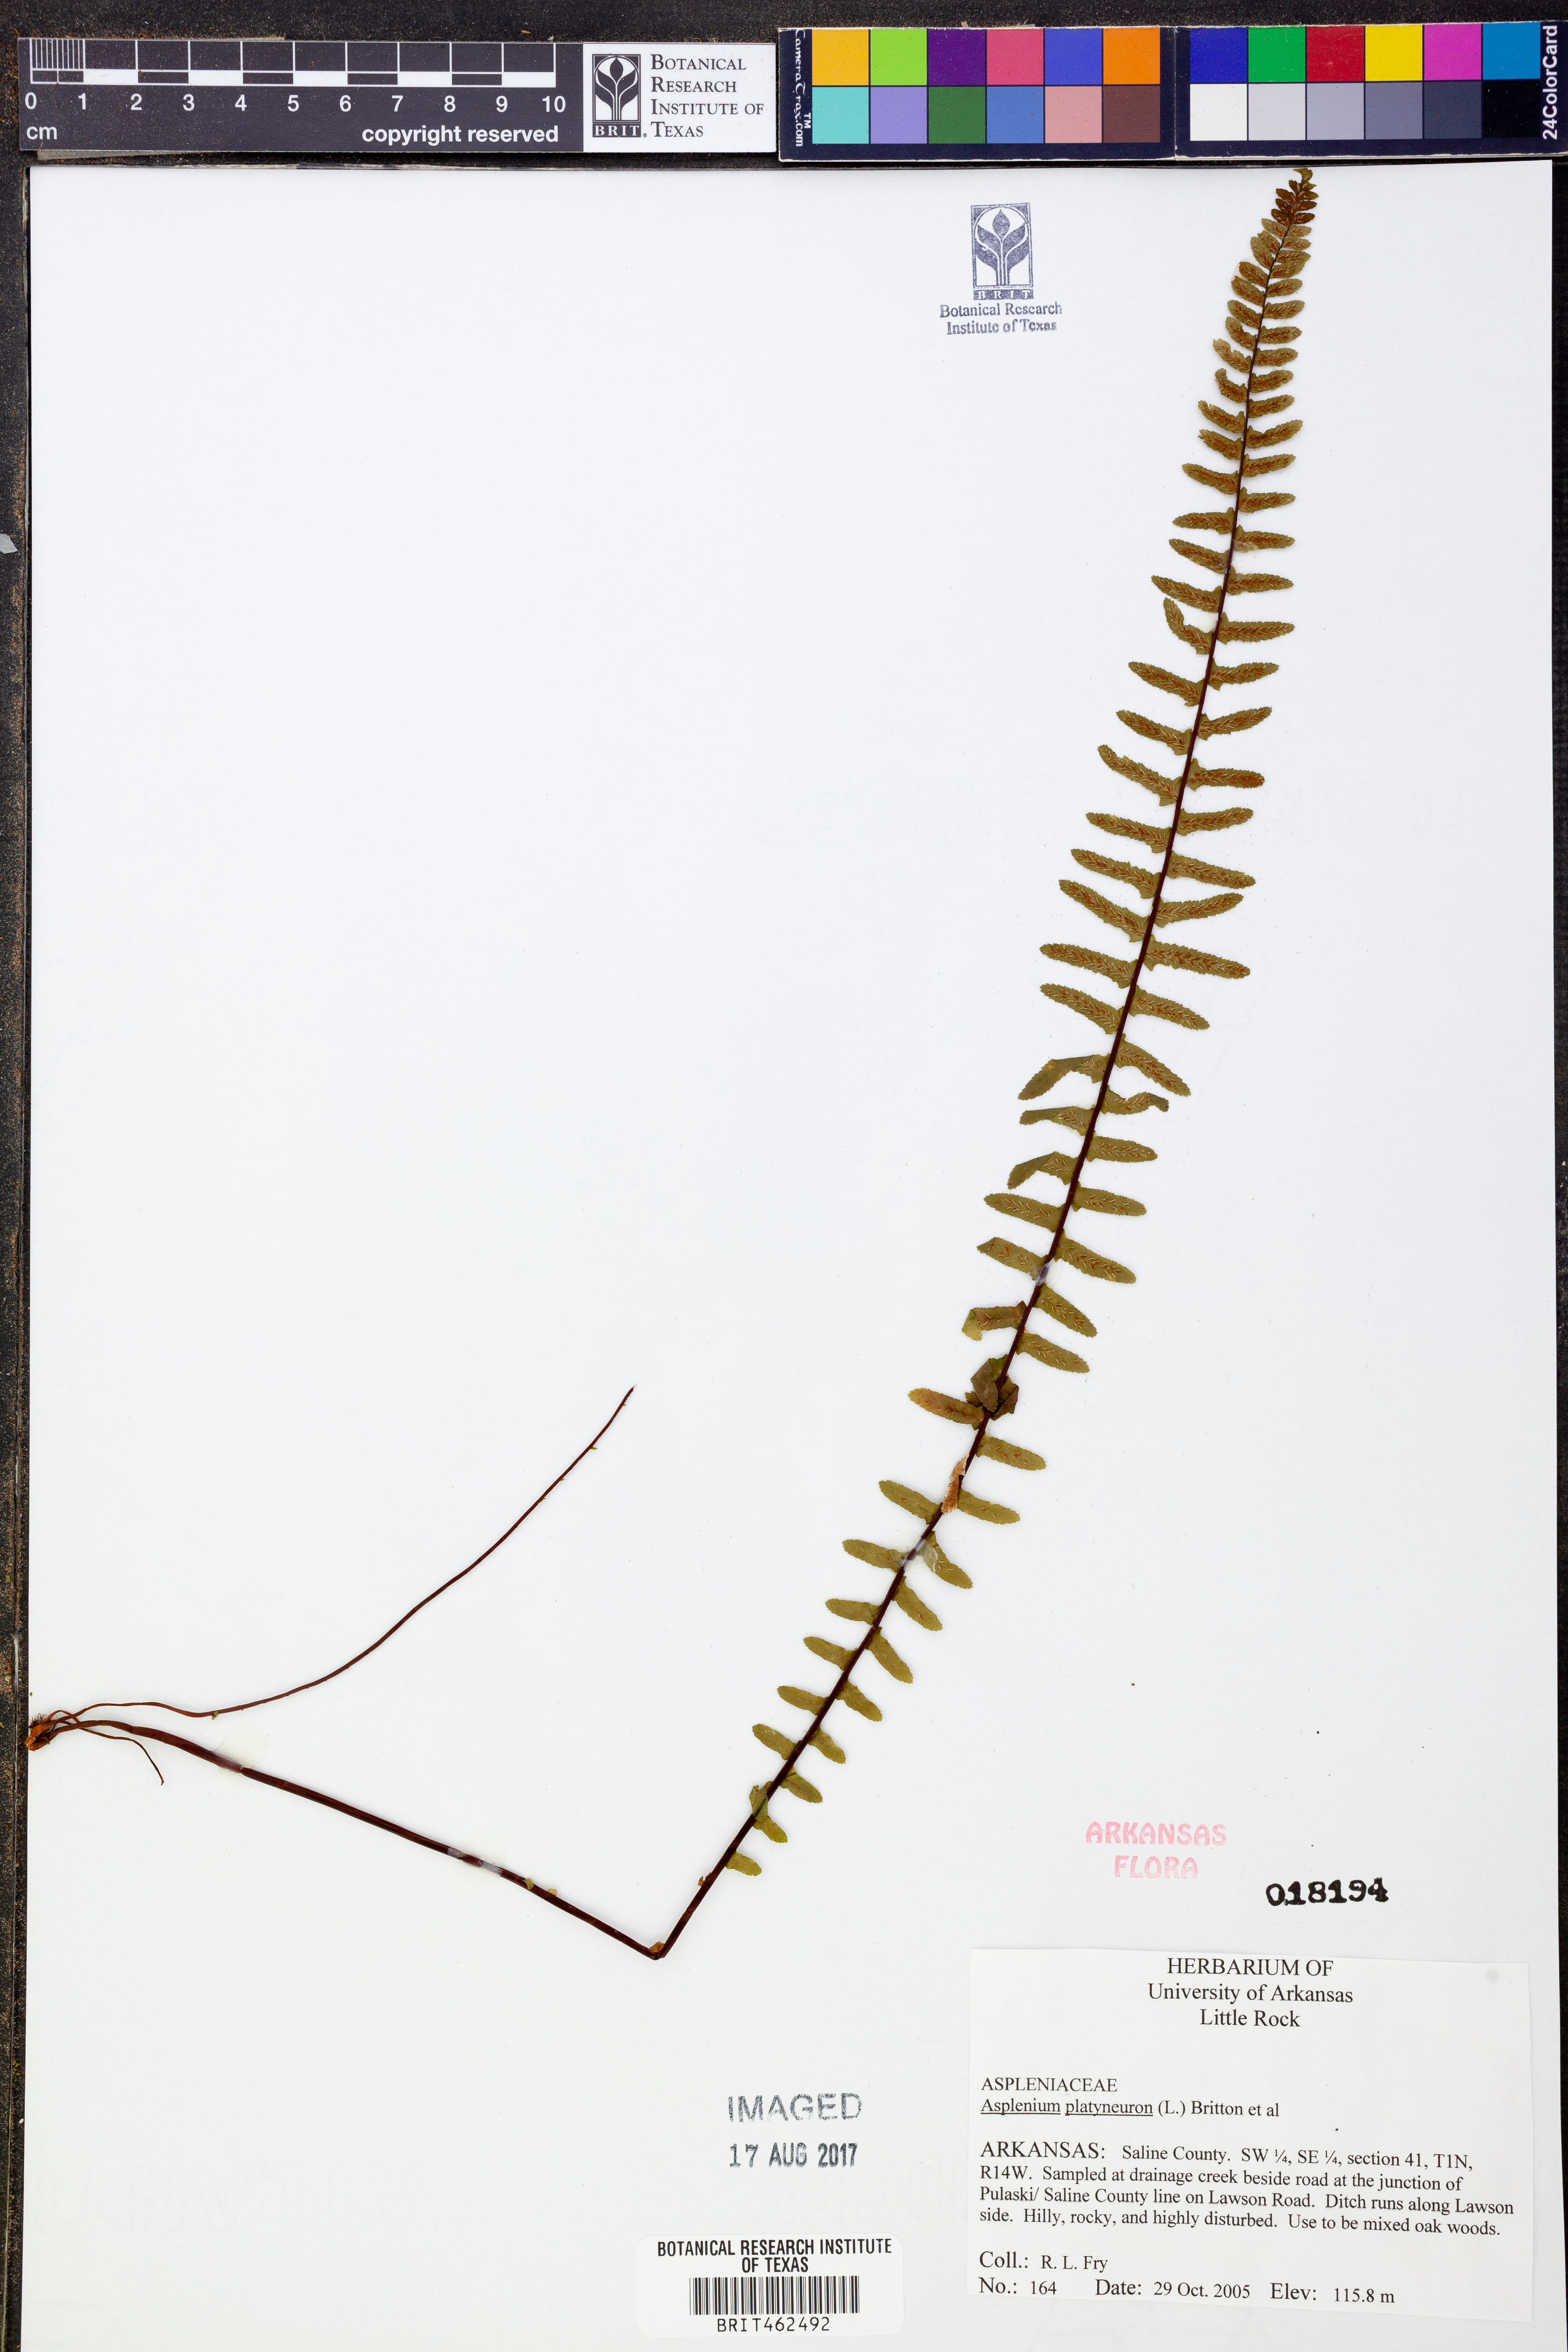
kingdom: Plantae
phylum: Tracheophyta
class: Polypodiopsida
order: Polypodiales
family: Aspleniaceae
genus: Asplenium
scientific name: Asplenium platyneuron
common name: Ebony spleenwort
